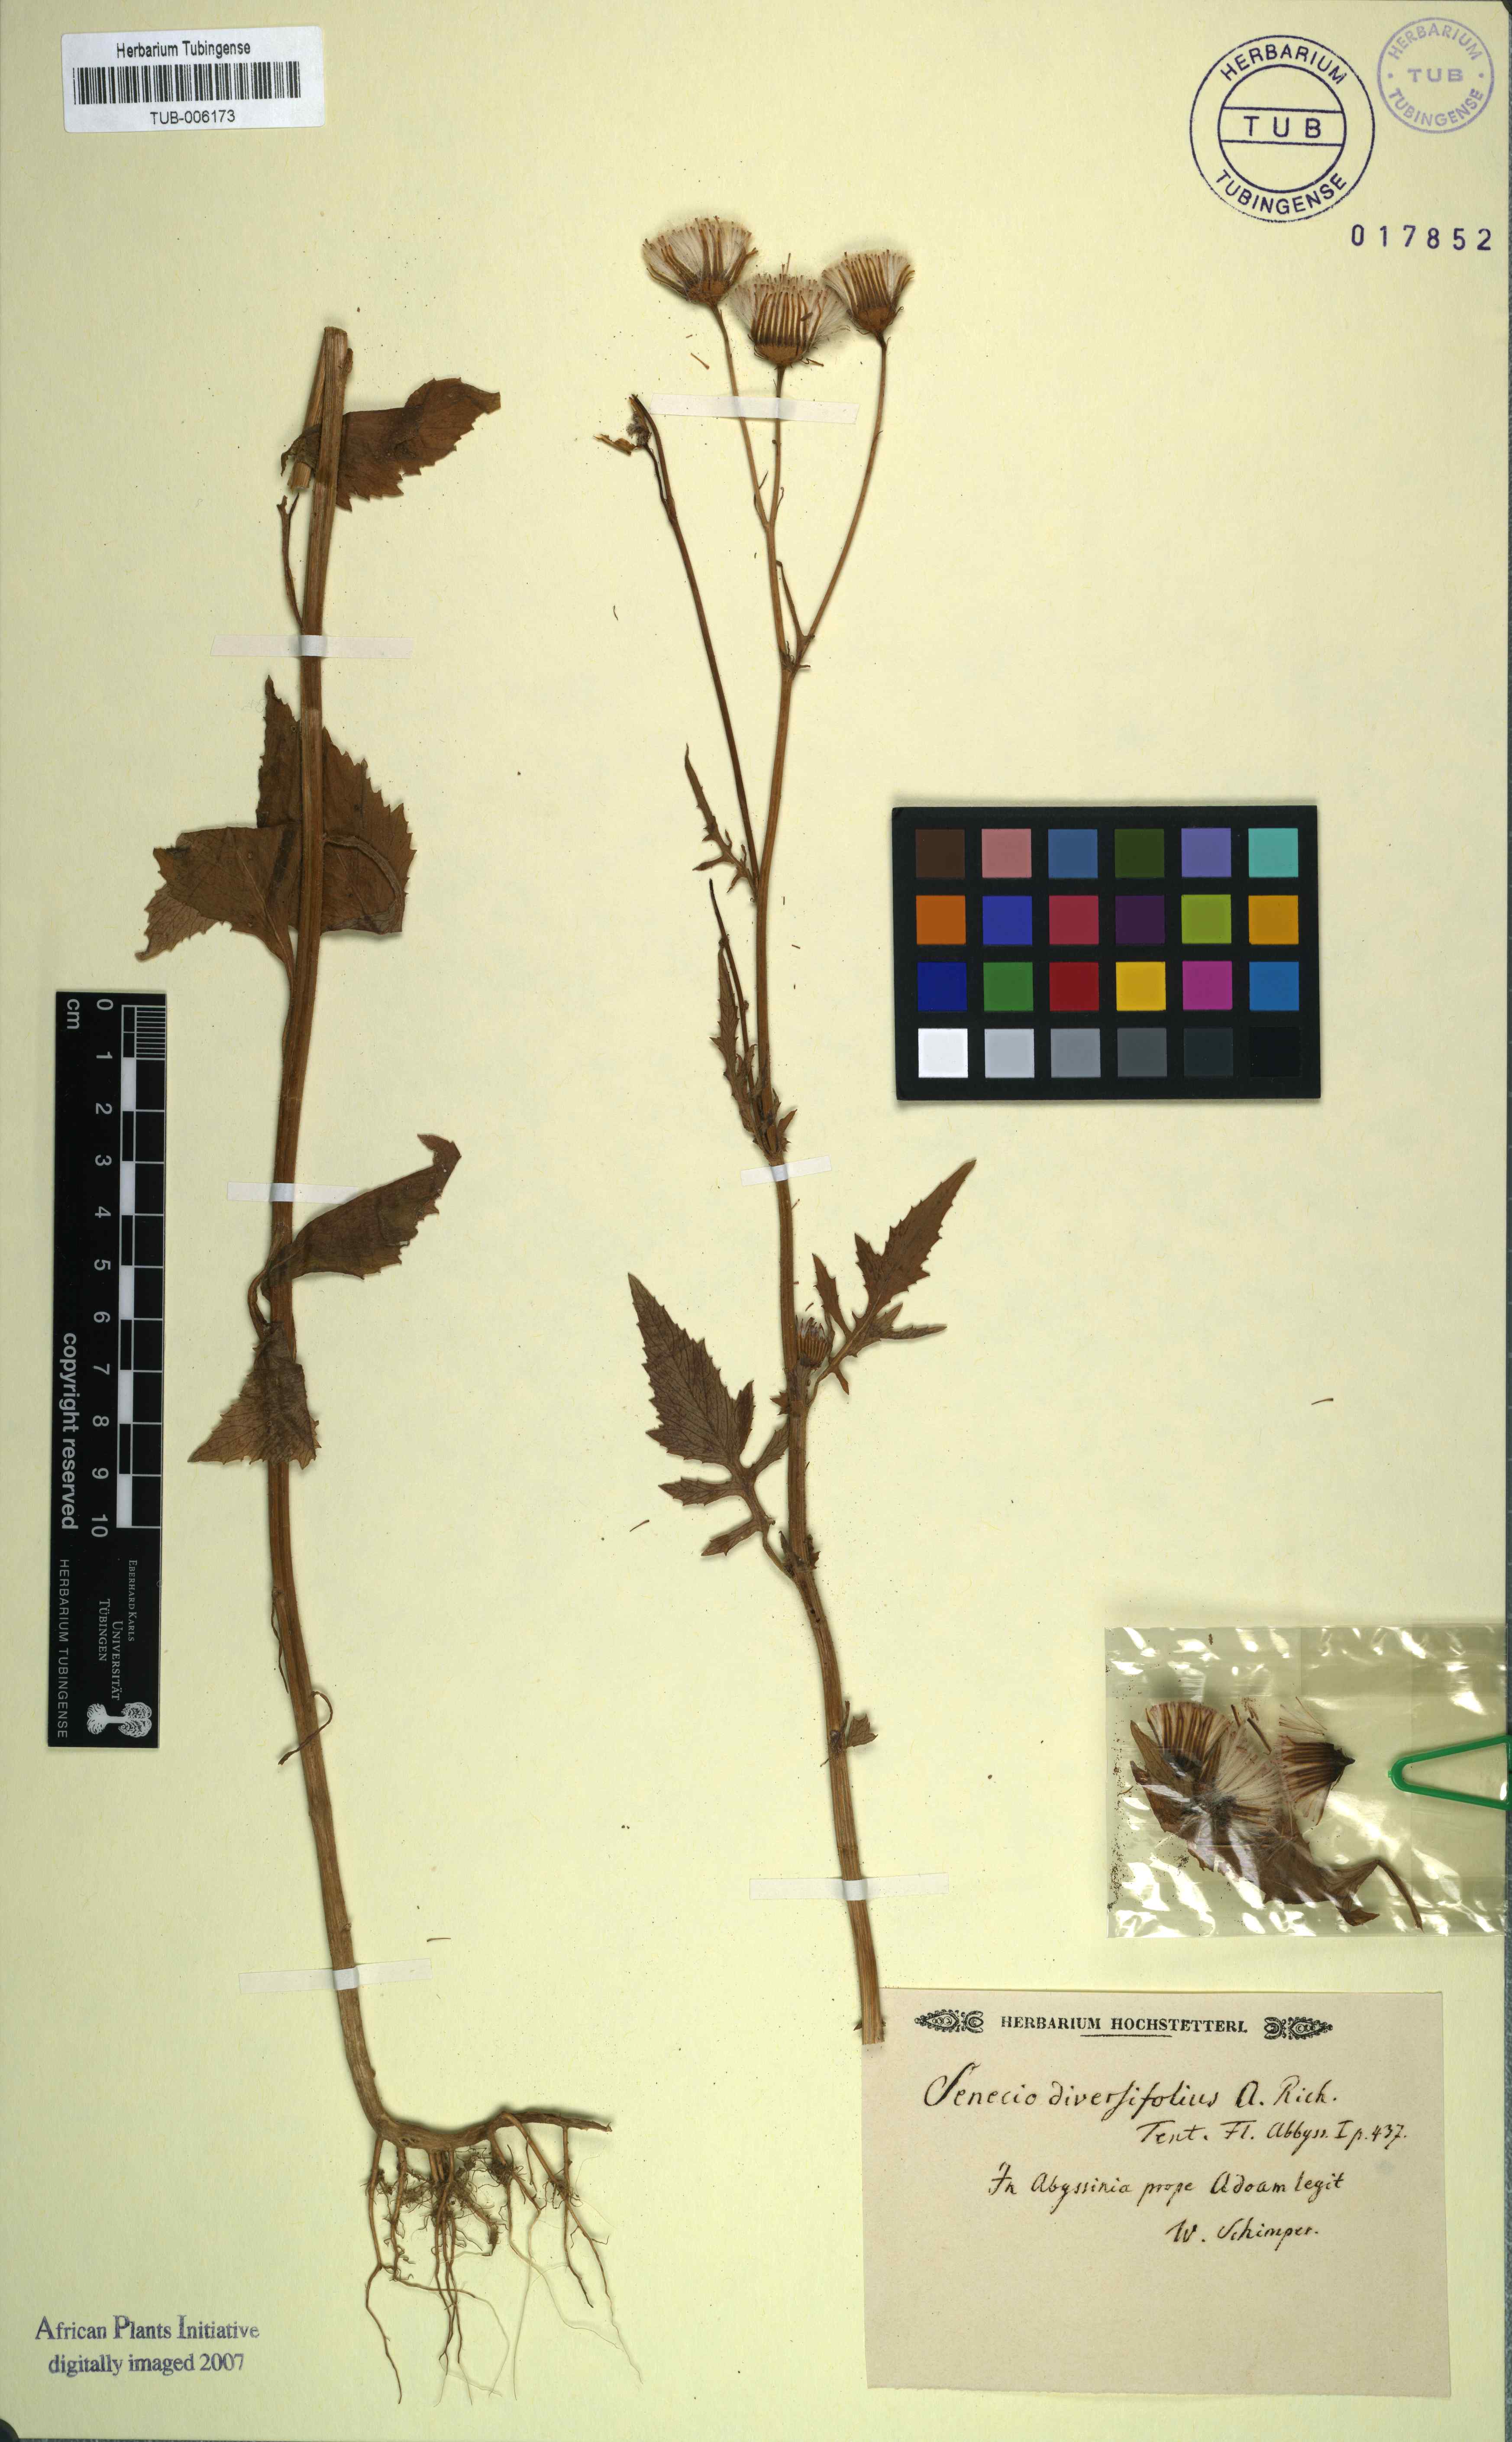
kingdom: Plantae
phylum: Tracheophyta
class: Magnoliopsida
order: Asterales
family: Asteraceae
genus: Crassocephalum
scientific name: Crassocephalum crepidioides
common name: Redflower ragleaf
